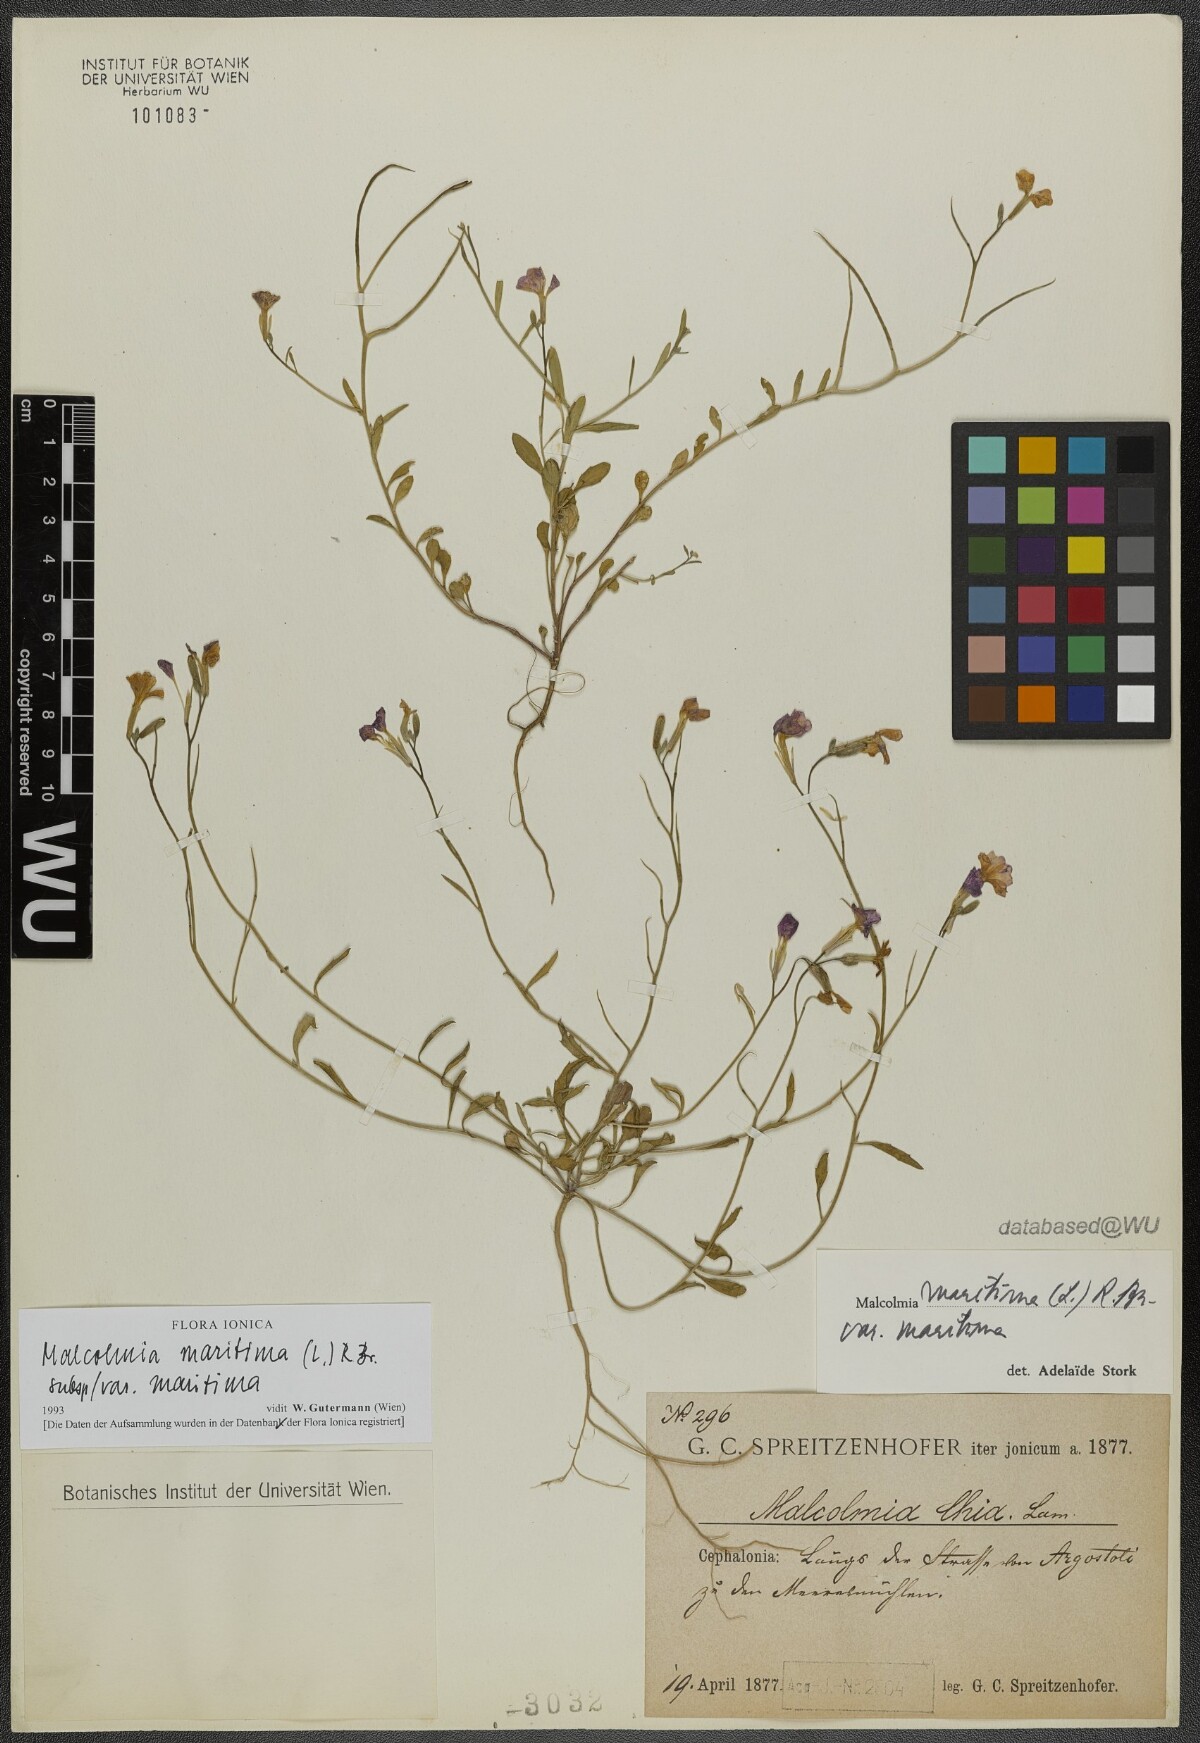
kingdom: Plantae
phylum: Tracheophyta
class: Magnoliopsida
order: Brassicales
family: Brassicaceae
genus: Malcolmia
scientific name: Malcolmia maritima
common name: Virginia stock
